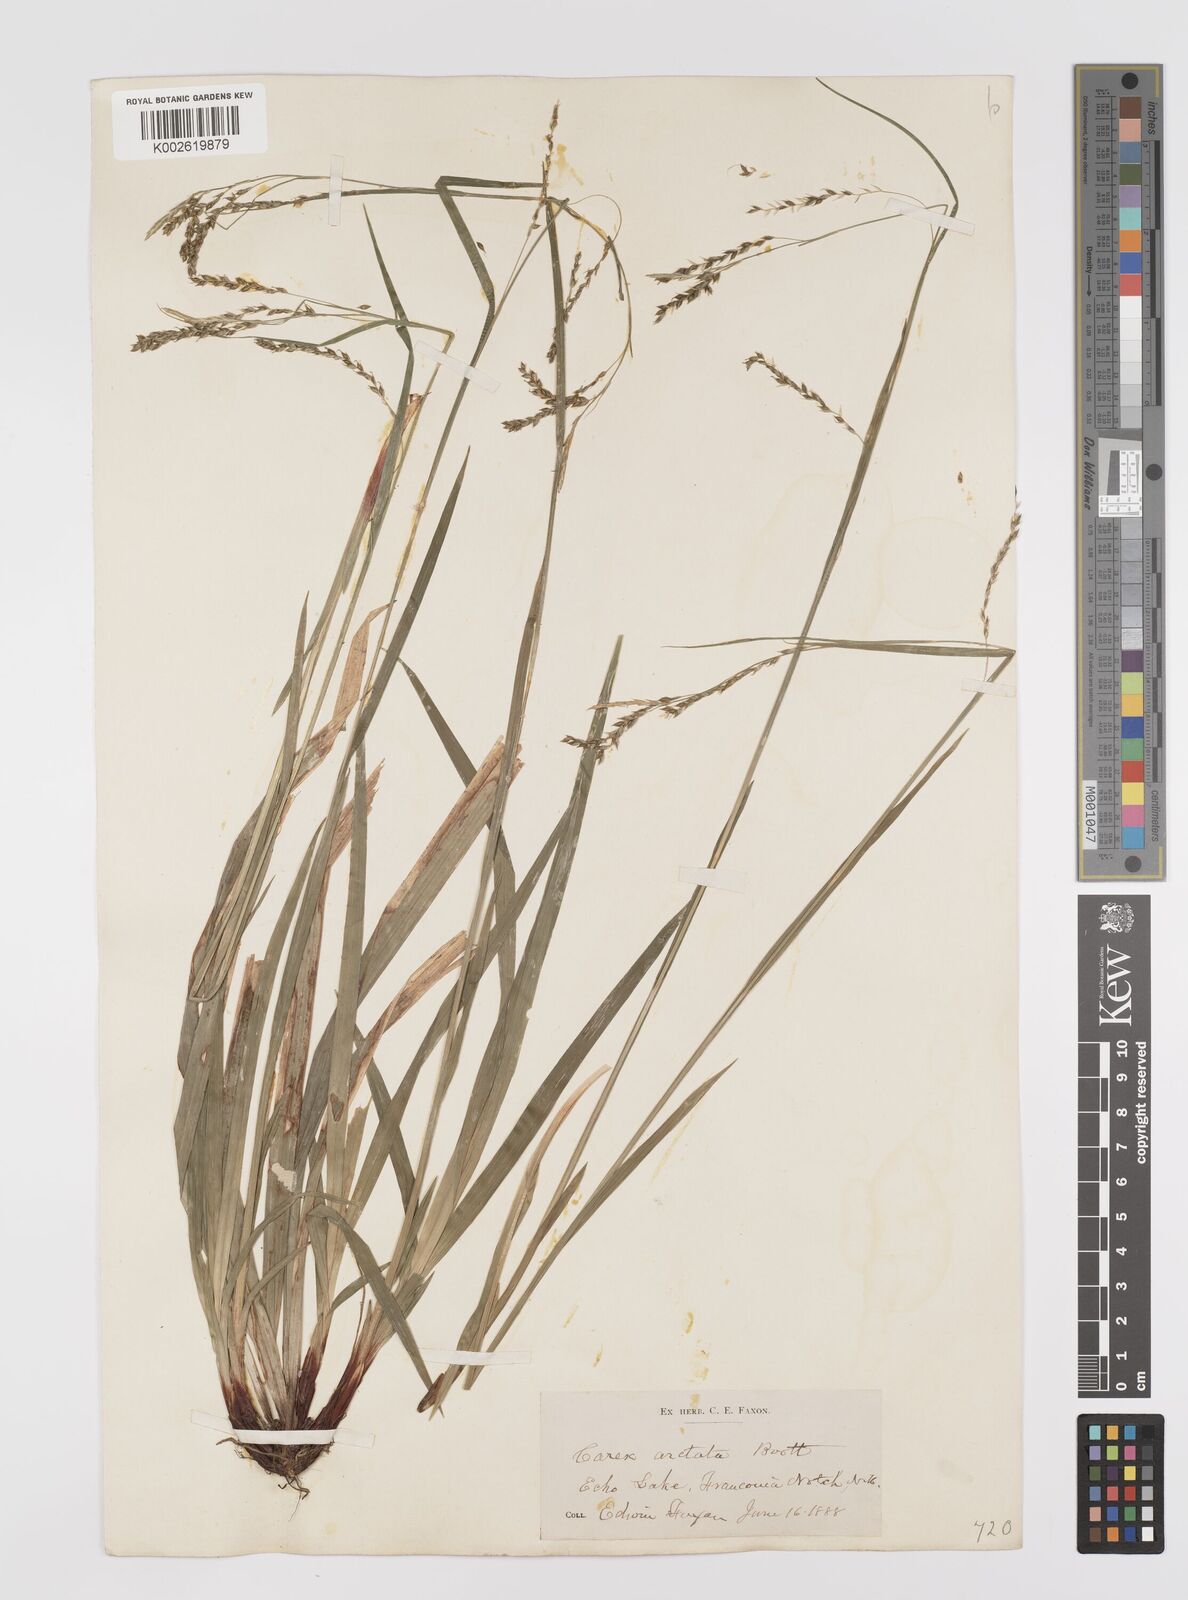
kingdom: Plantae
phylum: Tracheophyta
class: Liliopsida
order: Poales
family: Cyperaceae
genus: Carex
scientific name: Carex arctata
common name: Black sedge
